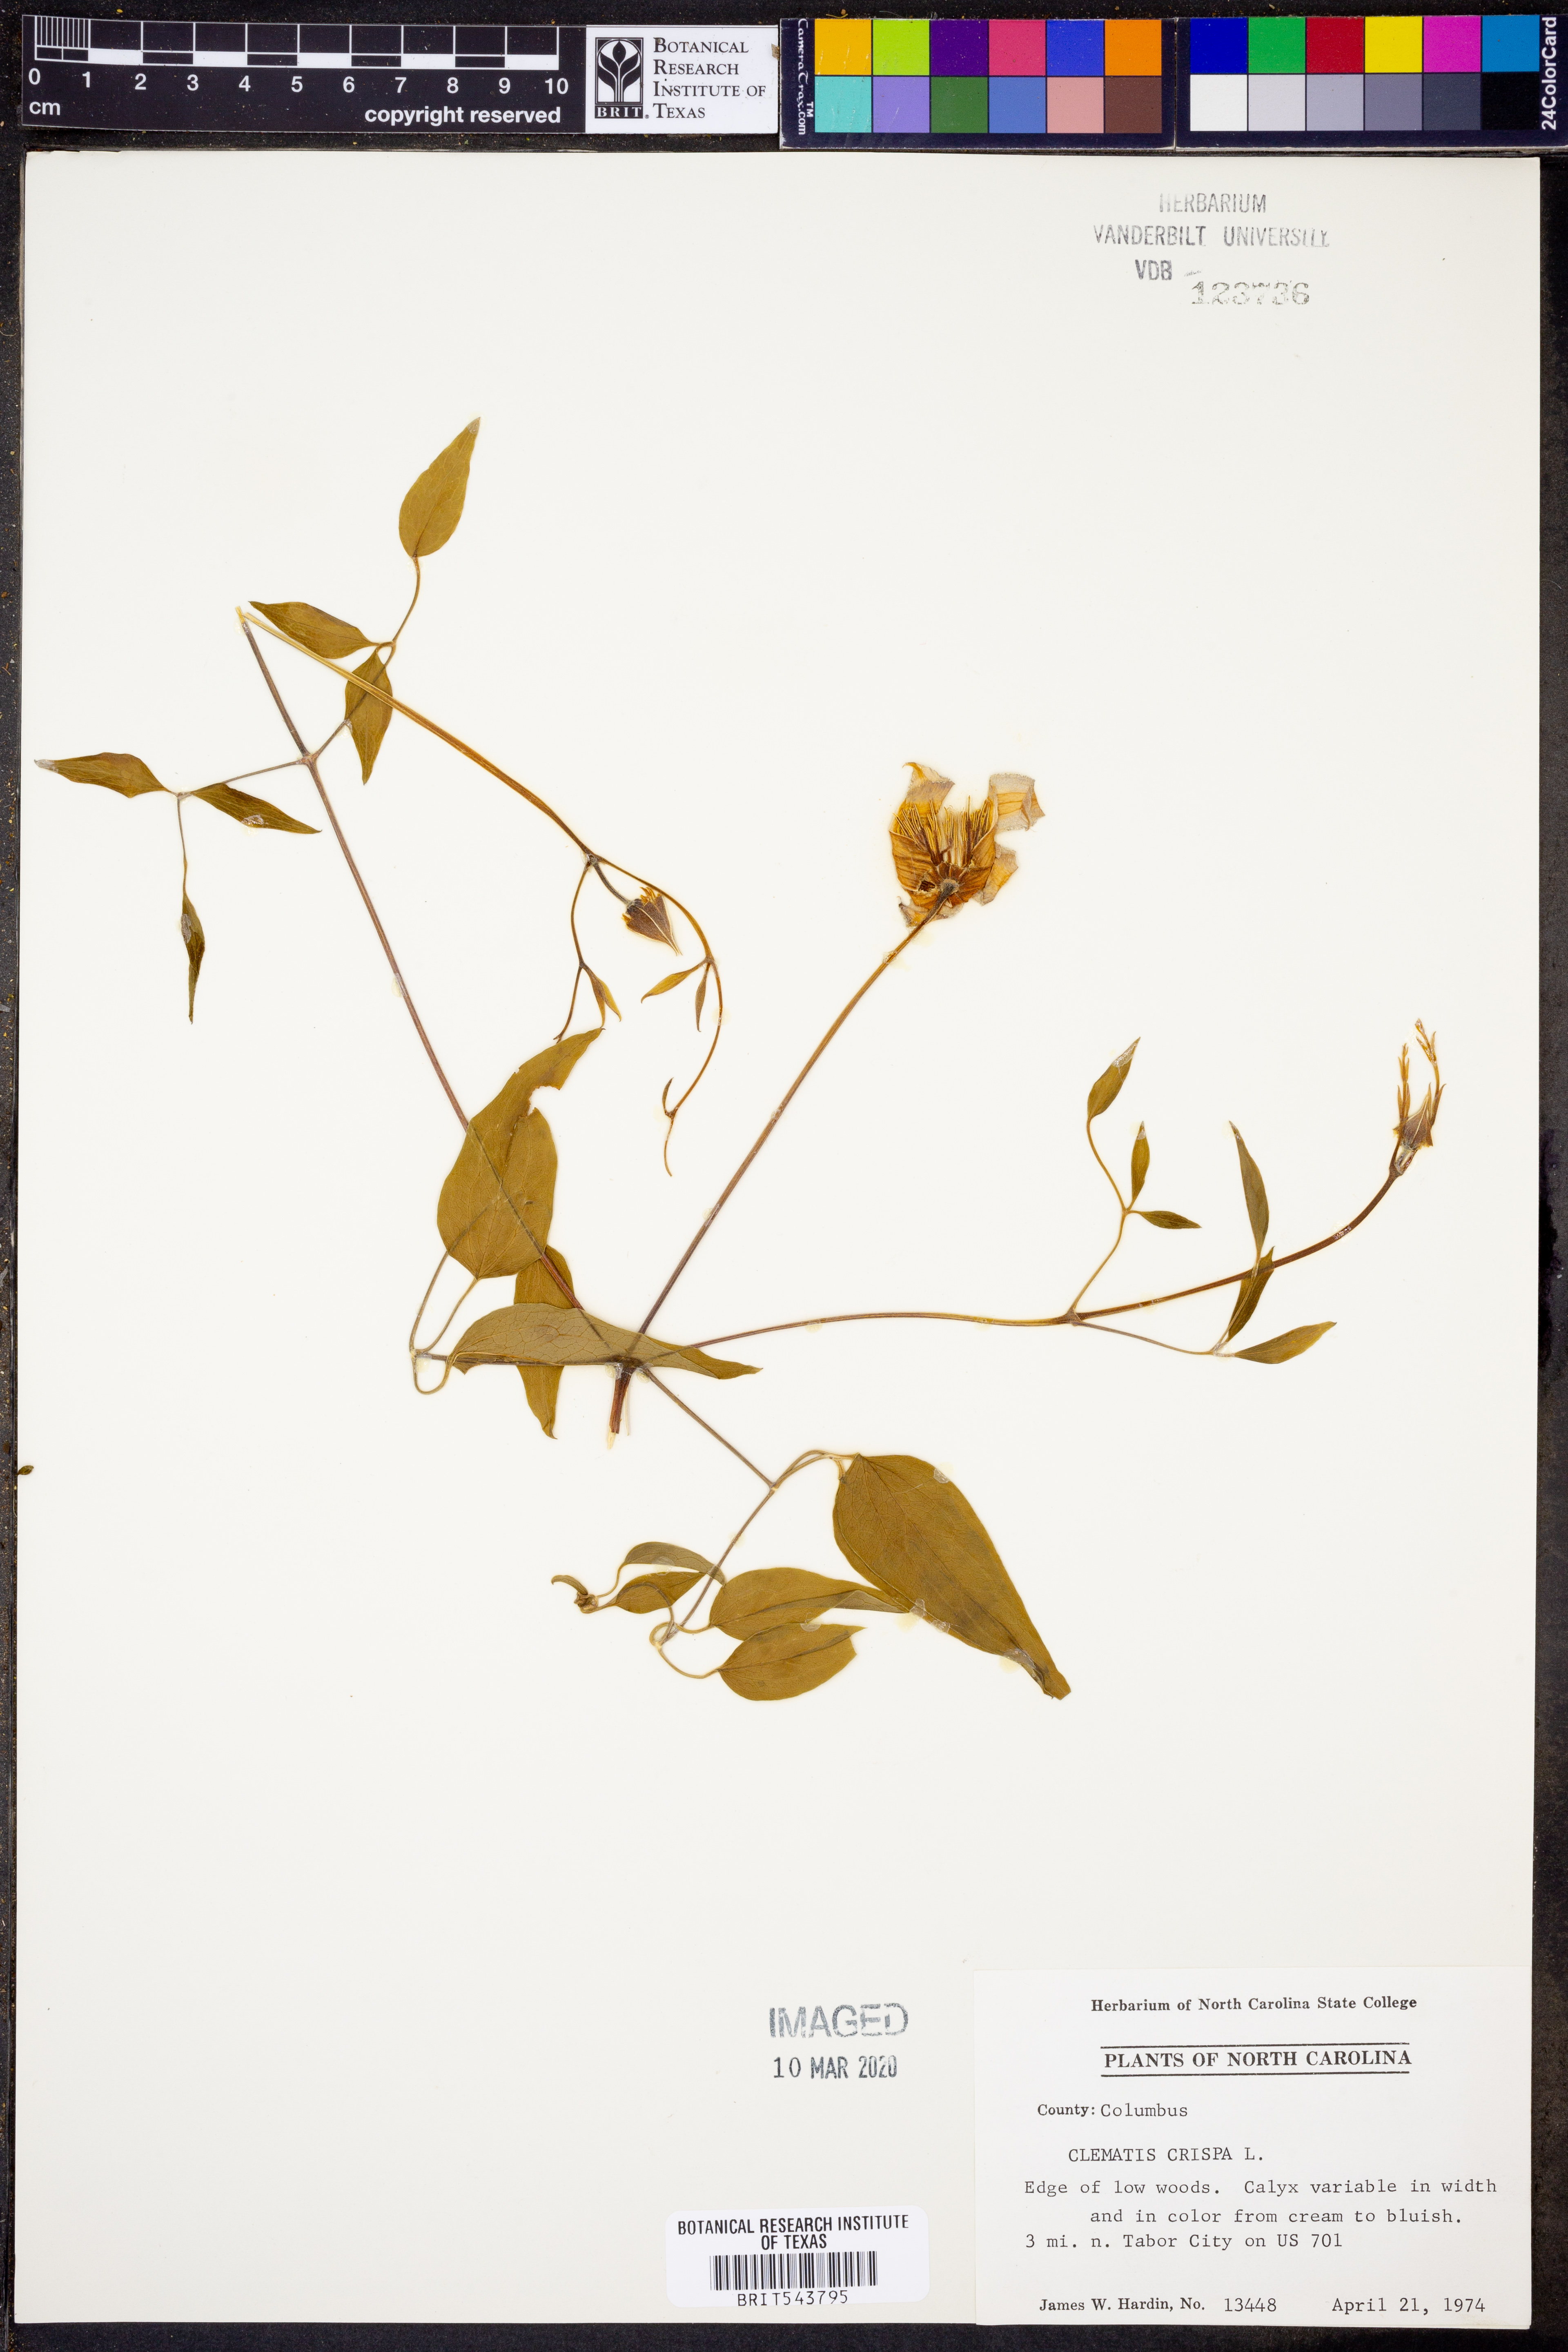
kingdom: Plantae
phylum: Tracheophyta
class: Magnoliopsida
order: Ranunculales
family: Ranunculaceae
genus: Clematis
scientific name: Clematis crispa
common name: Curly clematis
